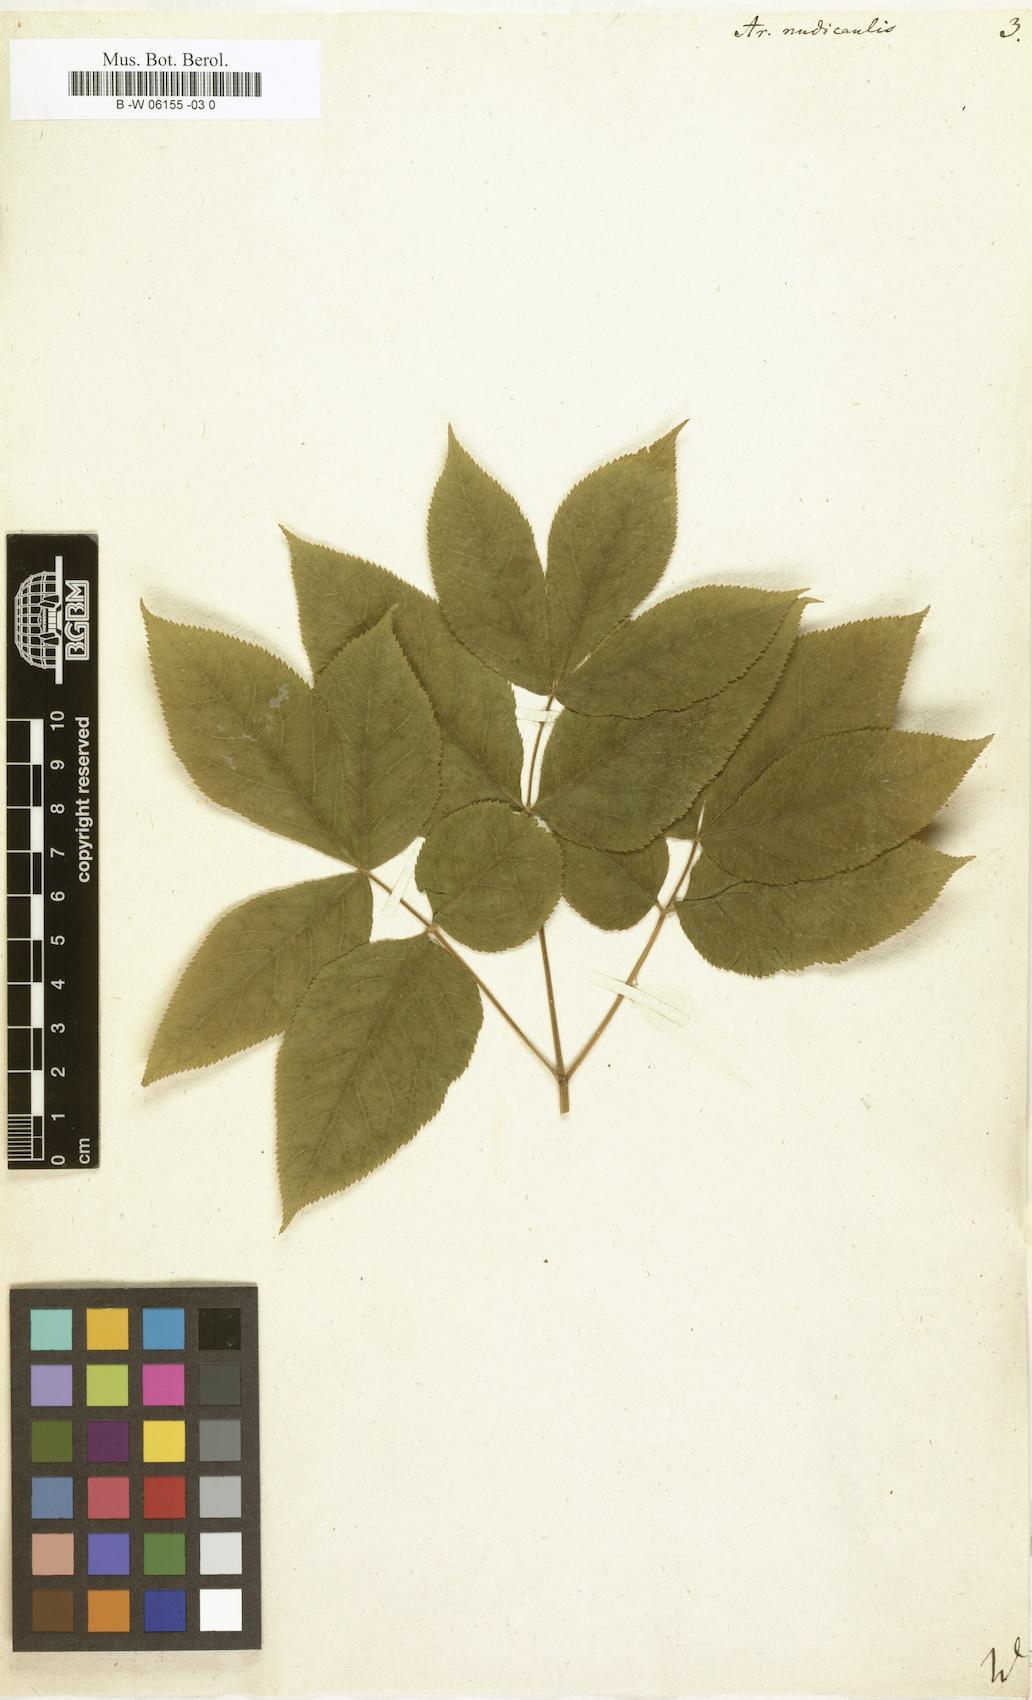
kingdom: Plantae
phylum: Tracheophyta
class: Magnoliopsida
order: Apiales
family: Araliaceae
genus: Aralia
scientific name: Aralia nudicaulis
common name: Wild sarsaparilla
